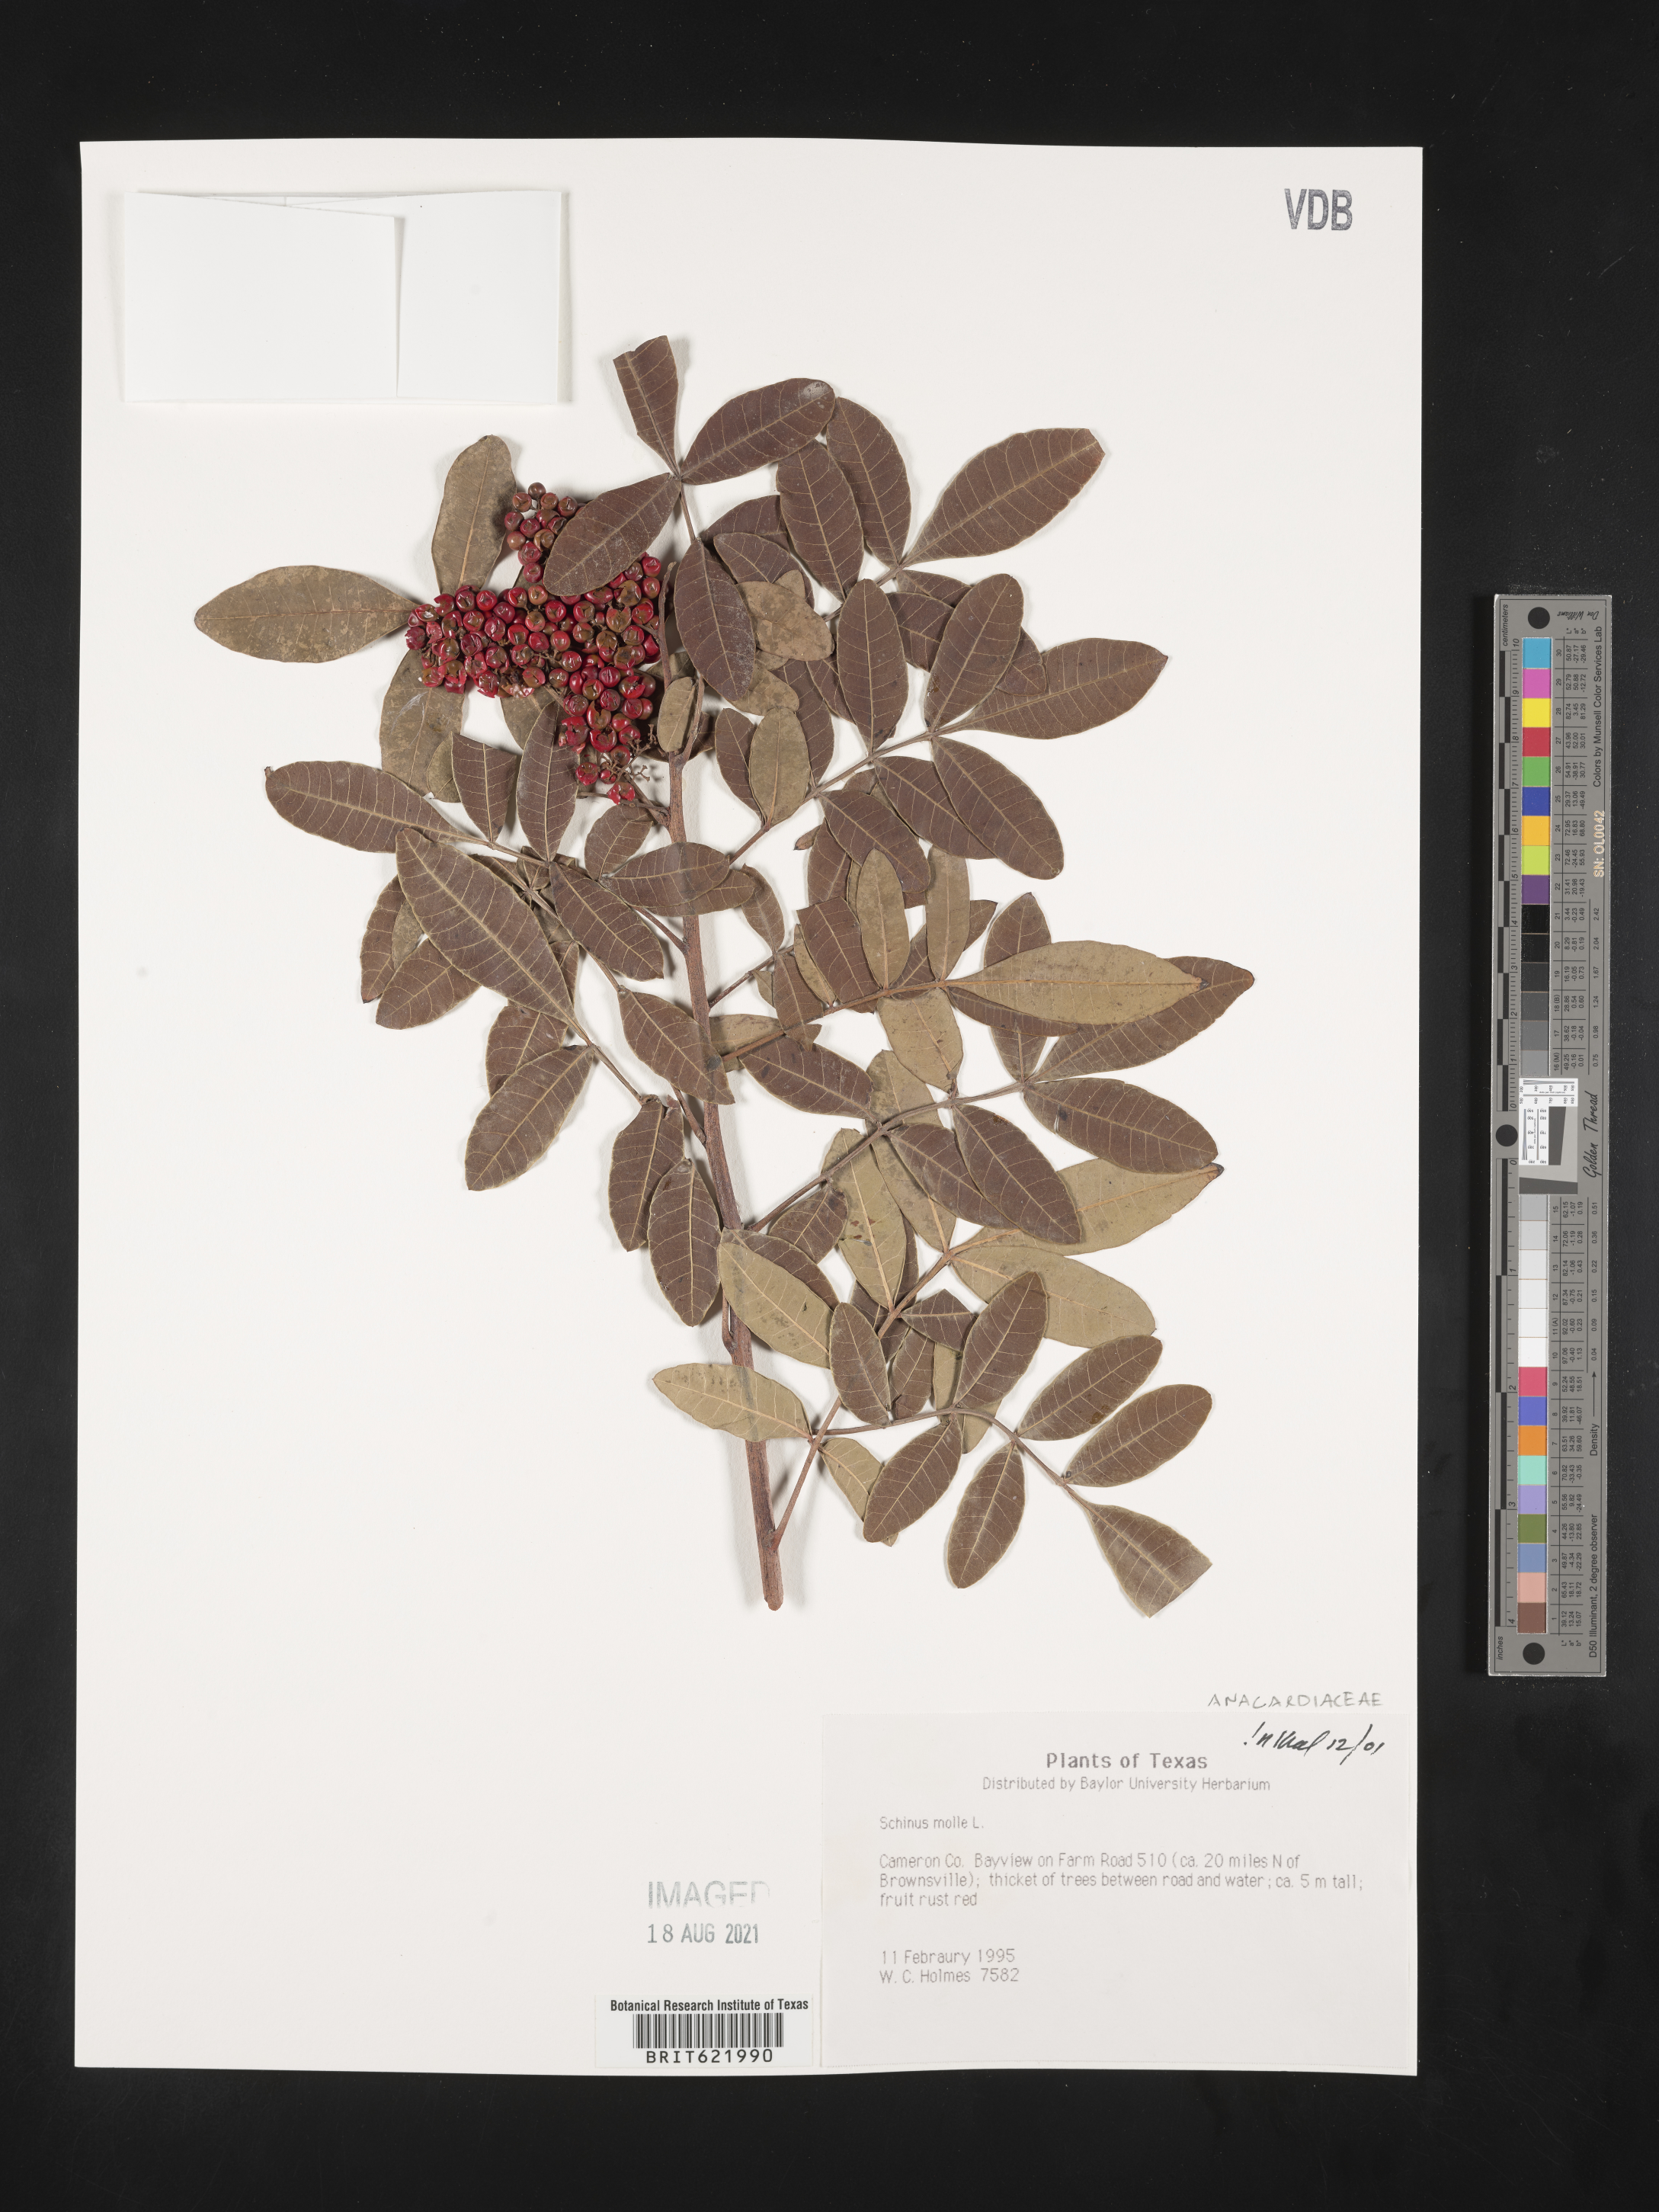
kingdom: Plantae
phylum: Tracheophyta
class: Magnoliopsida
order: Sapindales
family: Anacardiaceae
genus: Schinus
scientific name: Schinus molle
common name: Peruvian peppertree
